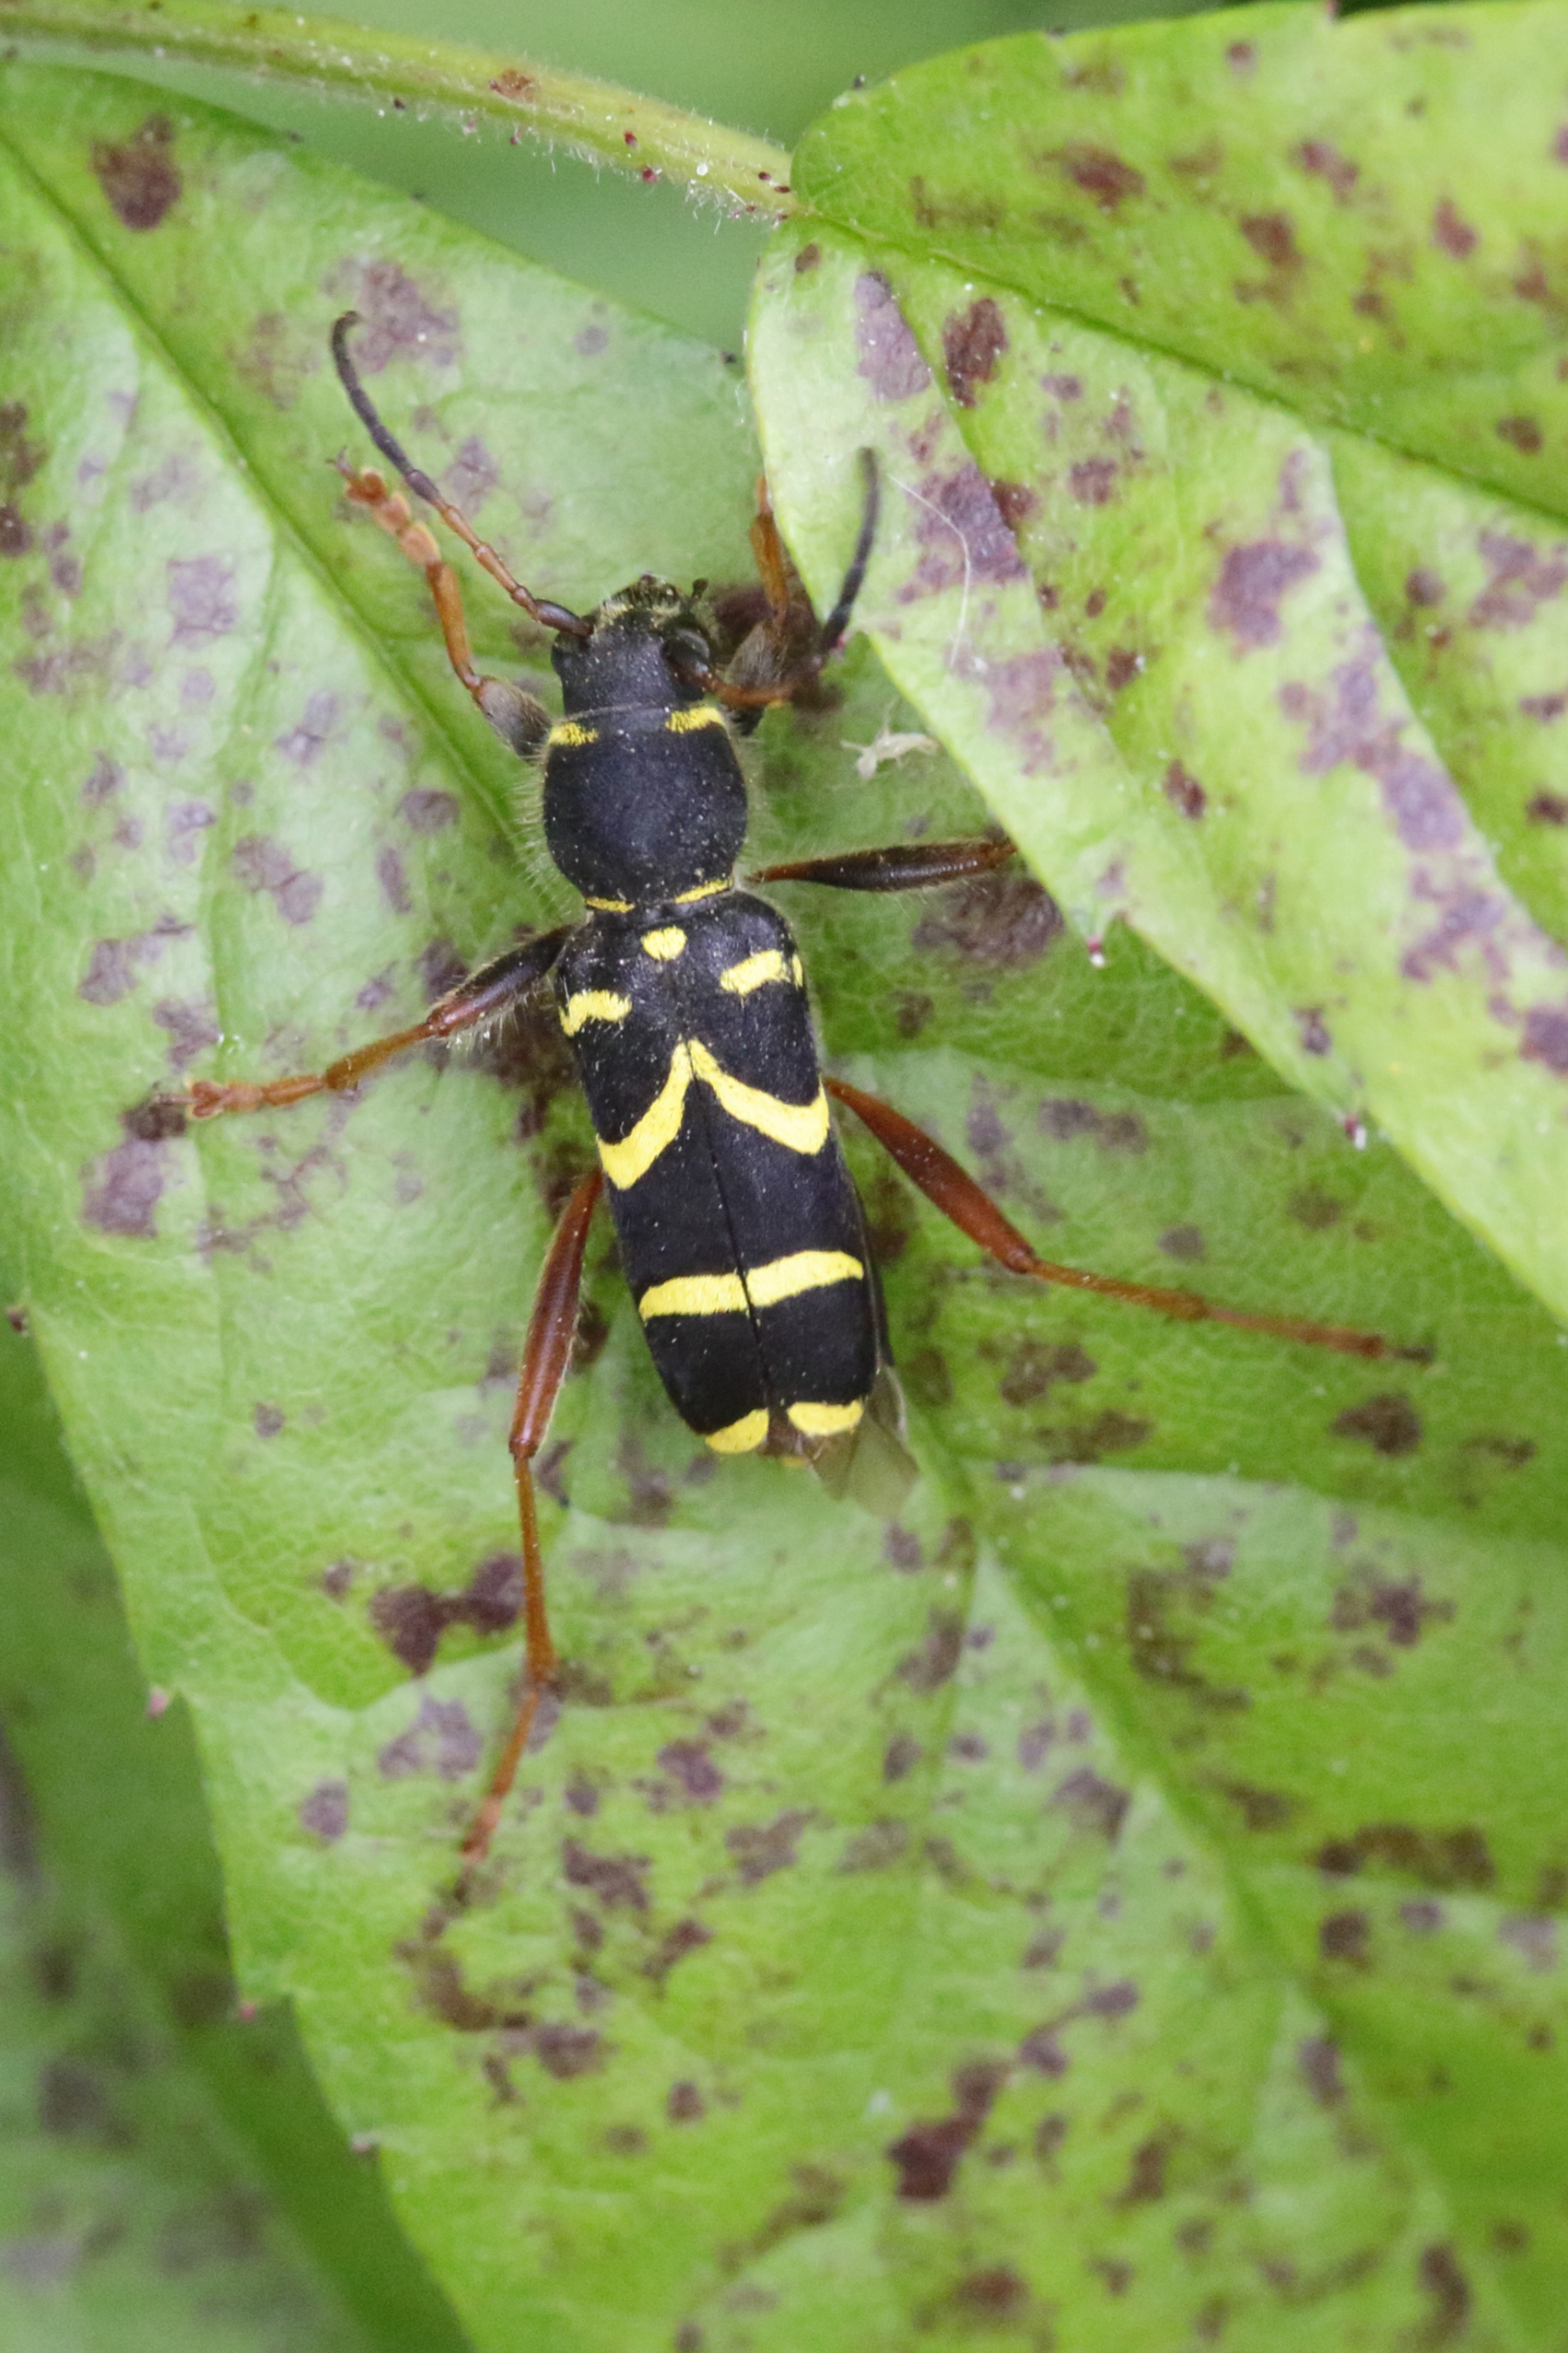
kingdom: Animalia
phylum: Arthropoda
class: Insecta
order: Coleoptera
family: Cerambycidae
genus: Clytus
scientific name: Clytus arietis
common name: Lille hvepsebuk
